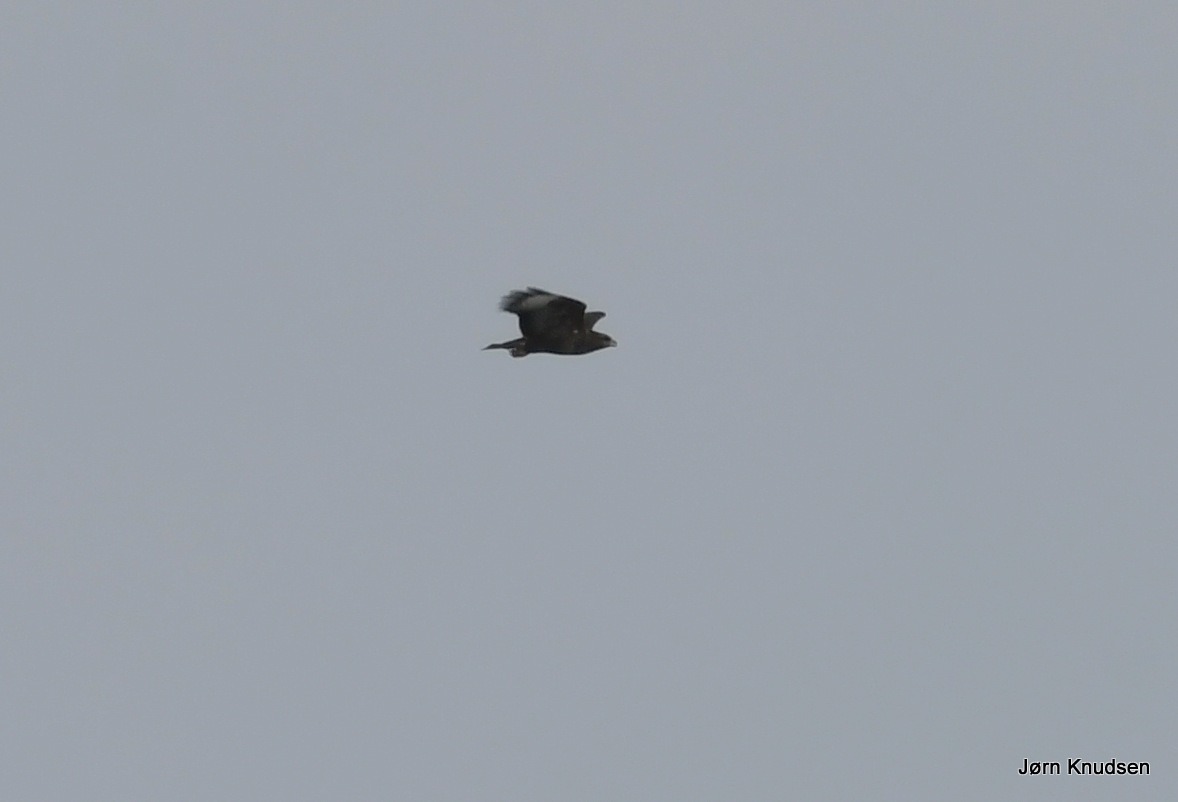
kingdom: Animalia
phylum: Chordata
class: Aves
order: Accipitriformes
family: Accipitridae
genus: Buteo
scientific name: Buteo buteo
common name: Musvåge
